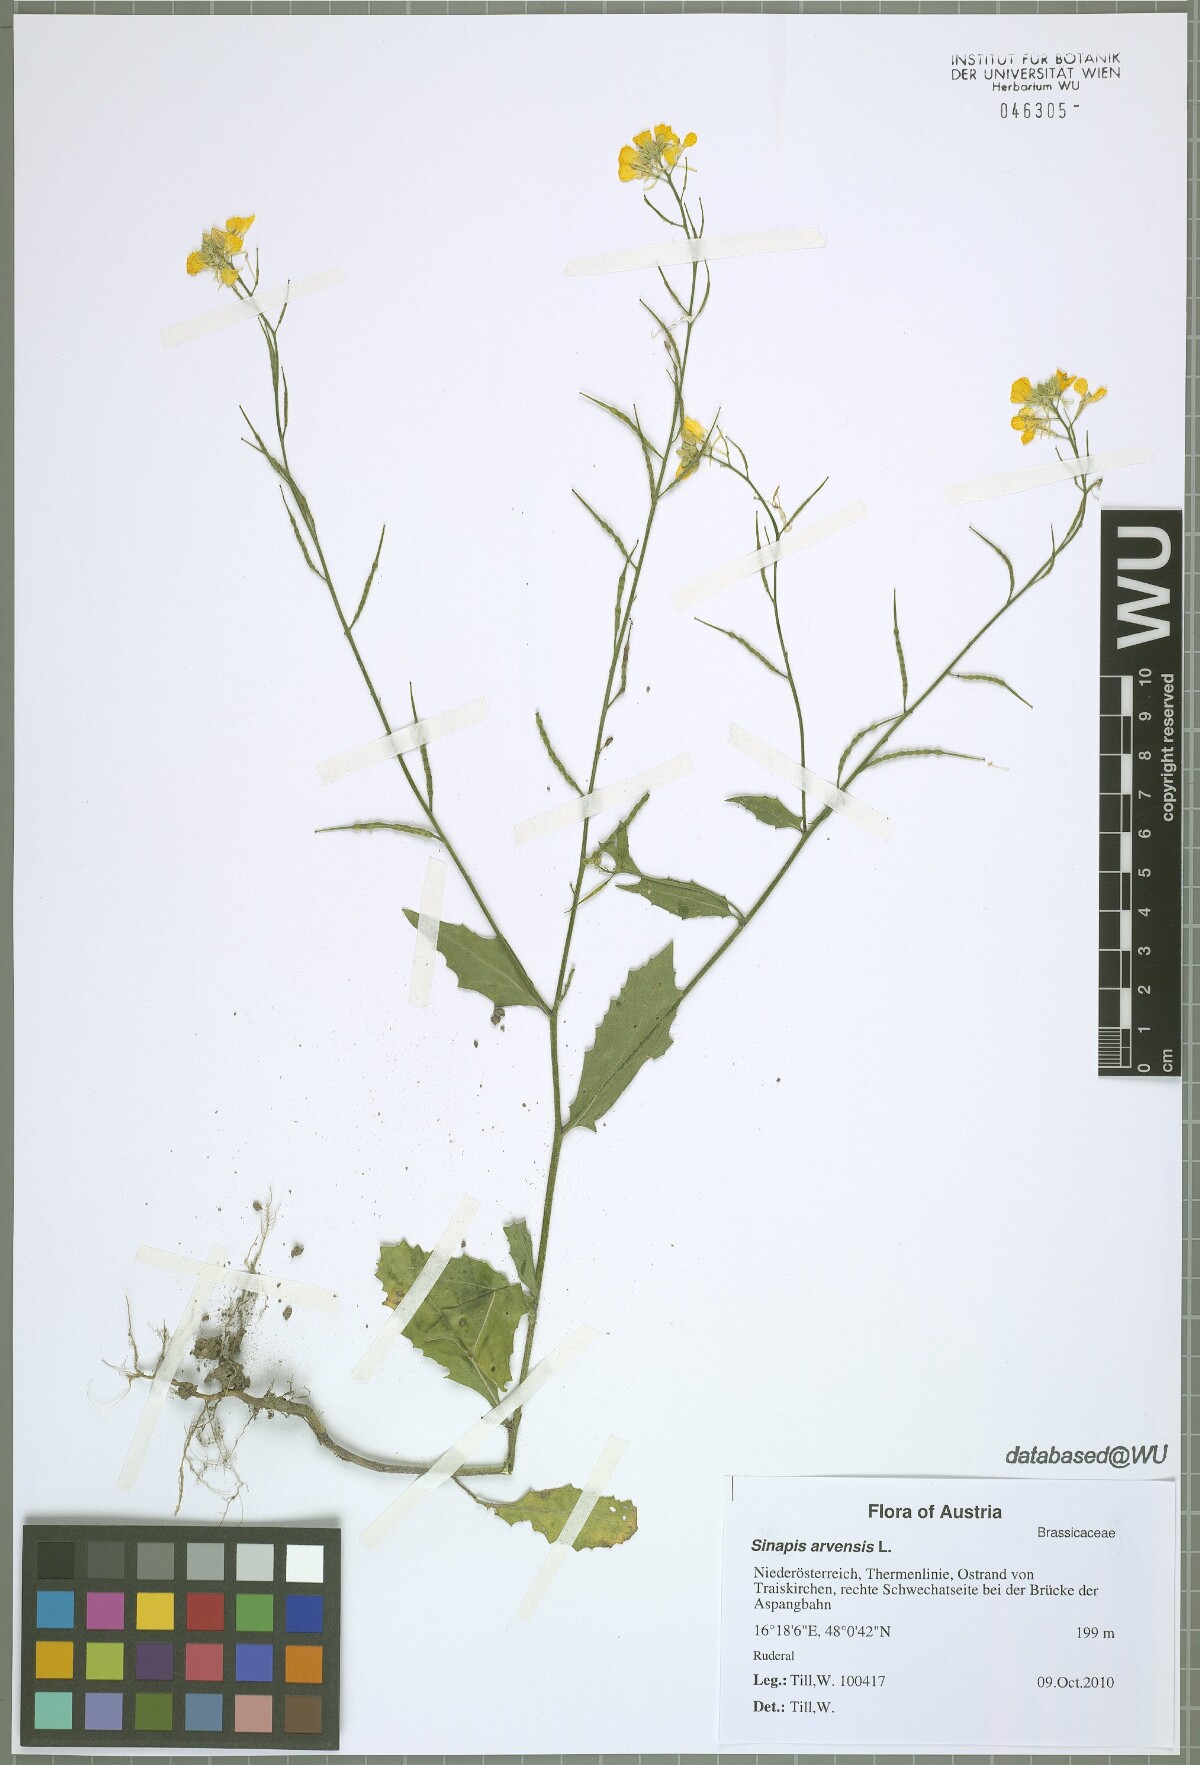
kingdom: Plantae
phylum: Tracheophyta
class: Magnoliopsida
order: Brassicales
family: Brassicaceae
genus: Sinapis
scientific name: Sinapis arvensis
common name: Charlock
